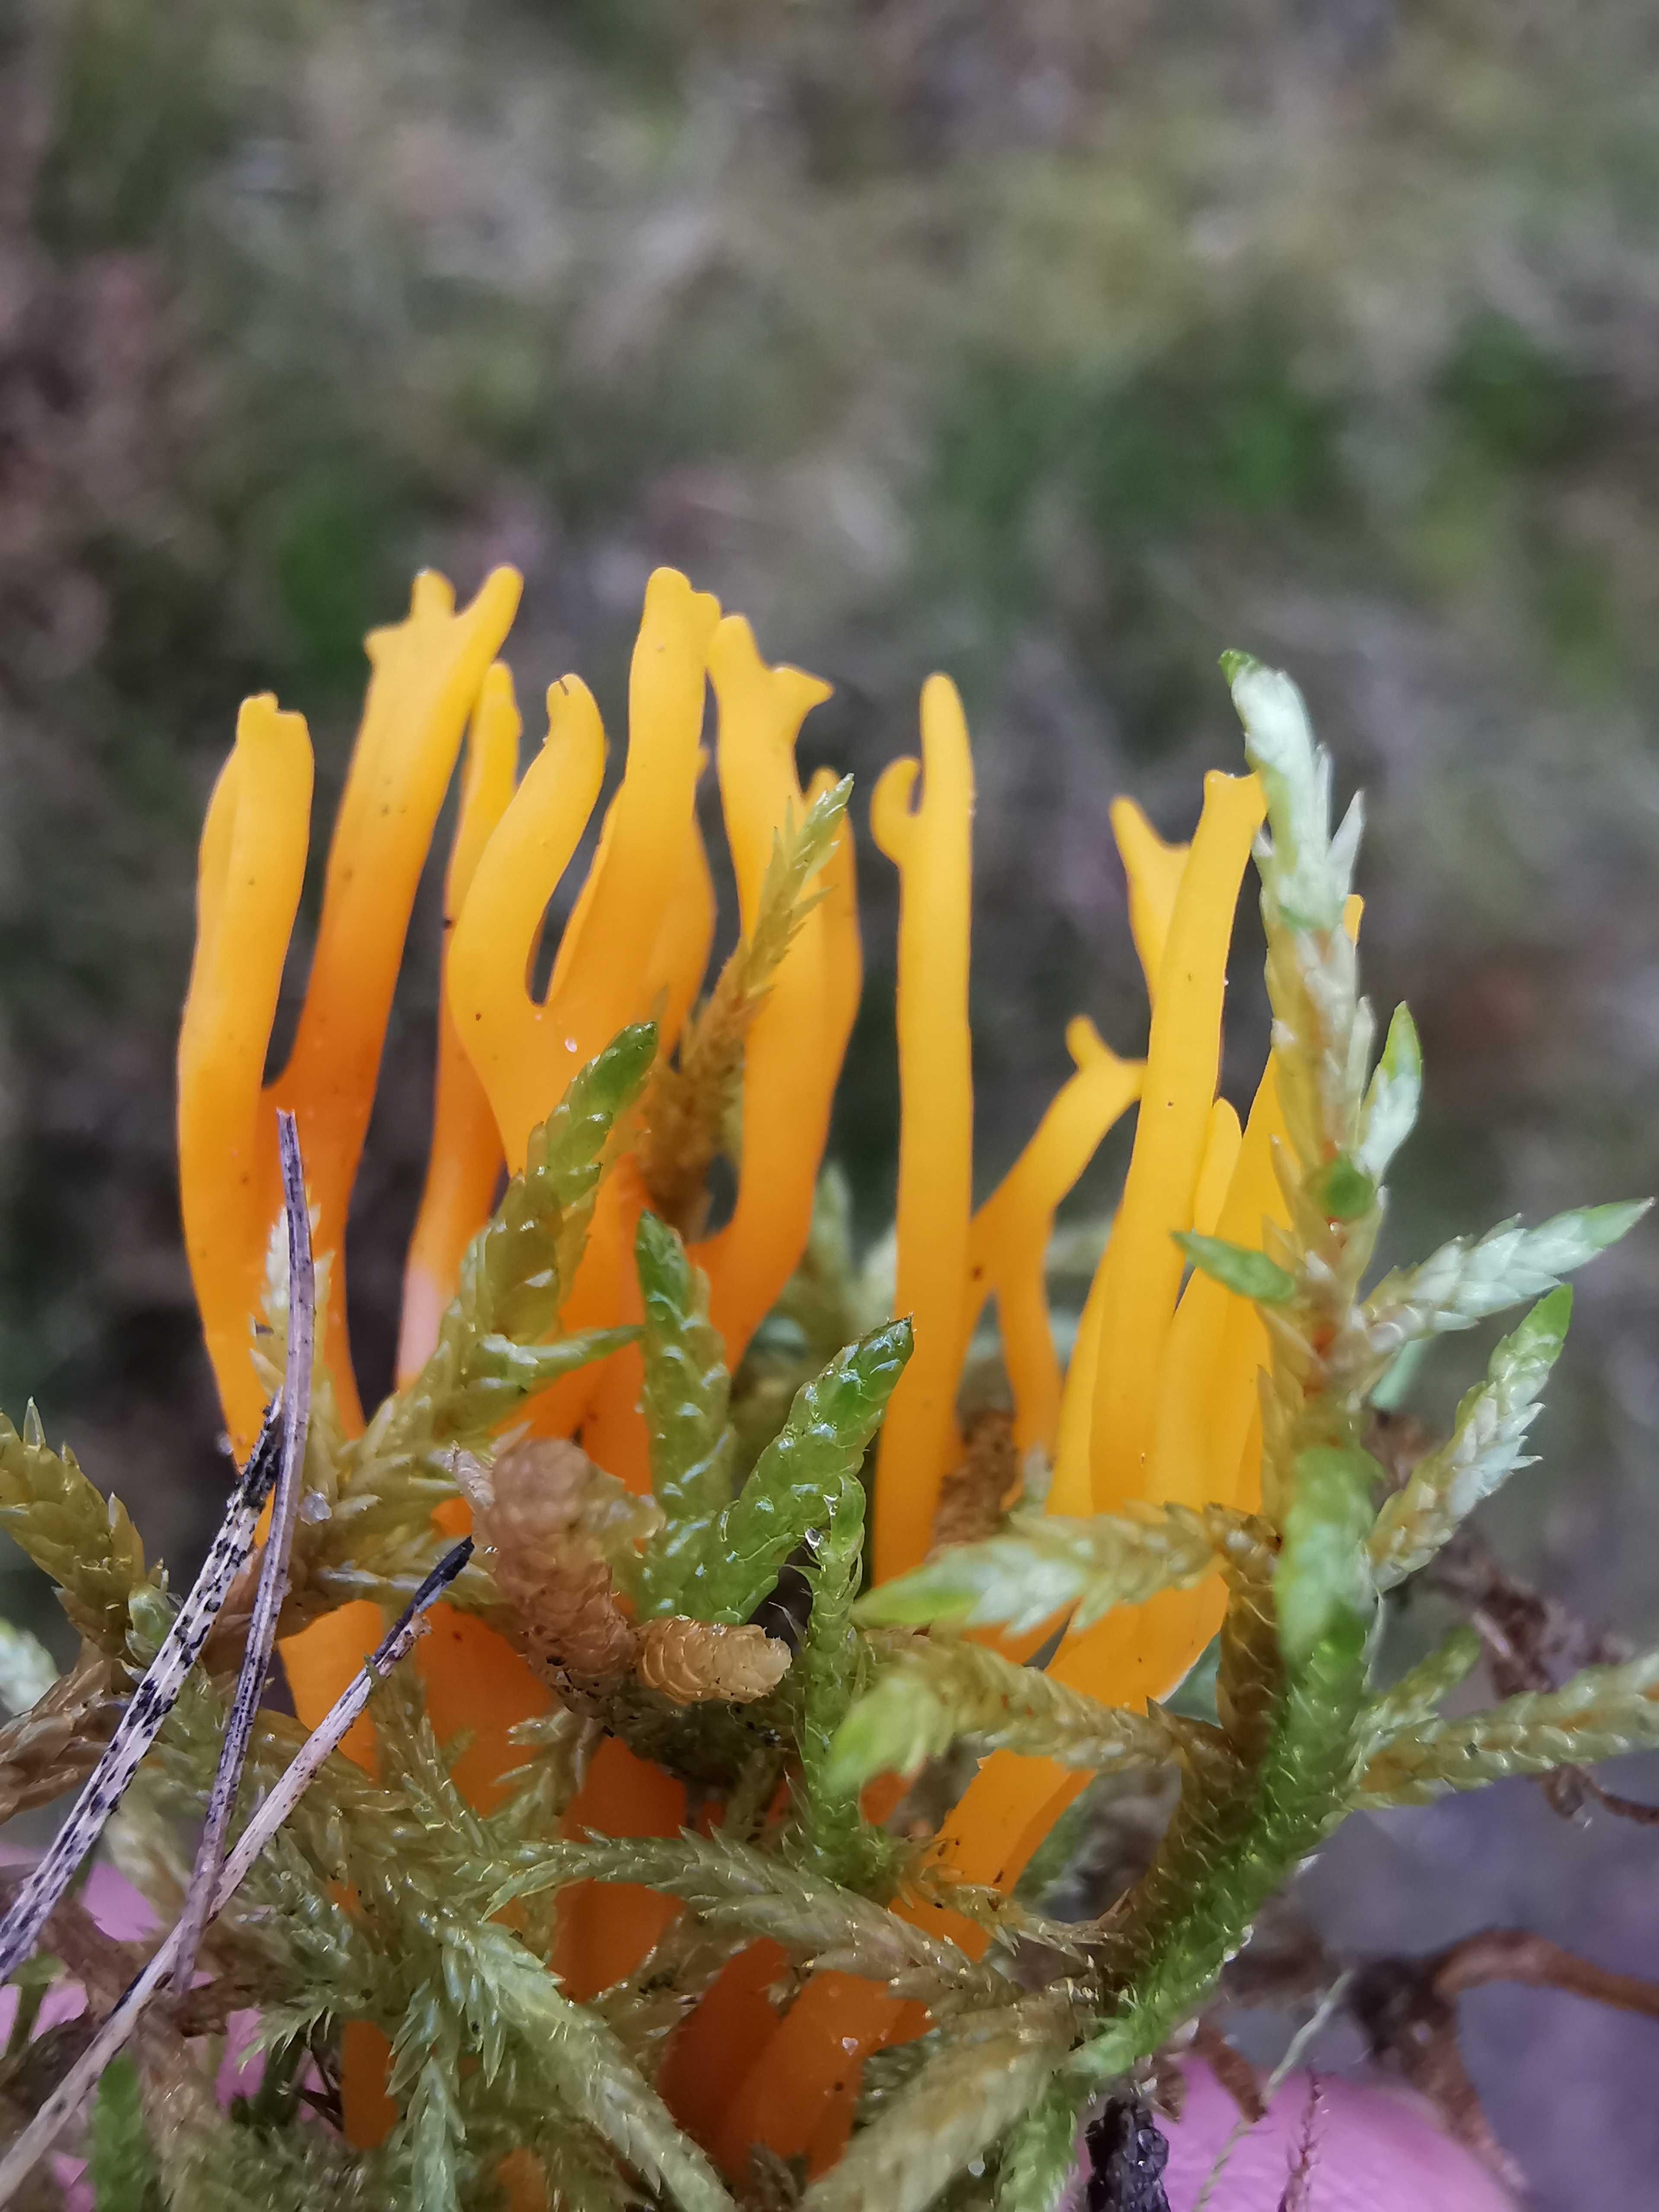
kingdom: Fungi
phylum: Basidiomycota
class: Dacrymycetes
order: Dacrymycetales
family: Dacrymycetaceae
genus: Calocera
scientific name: Calocera viscosa
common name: almindelig guldgaffel
